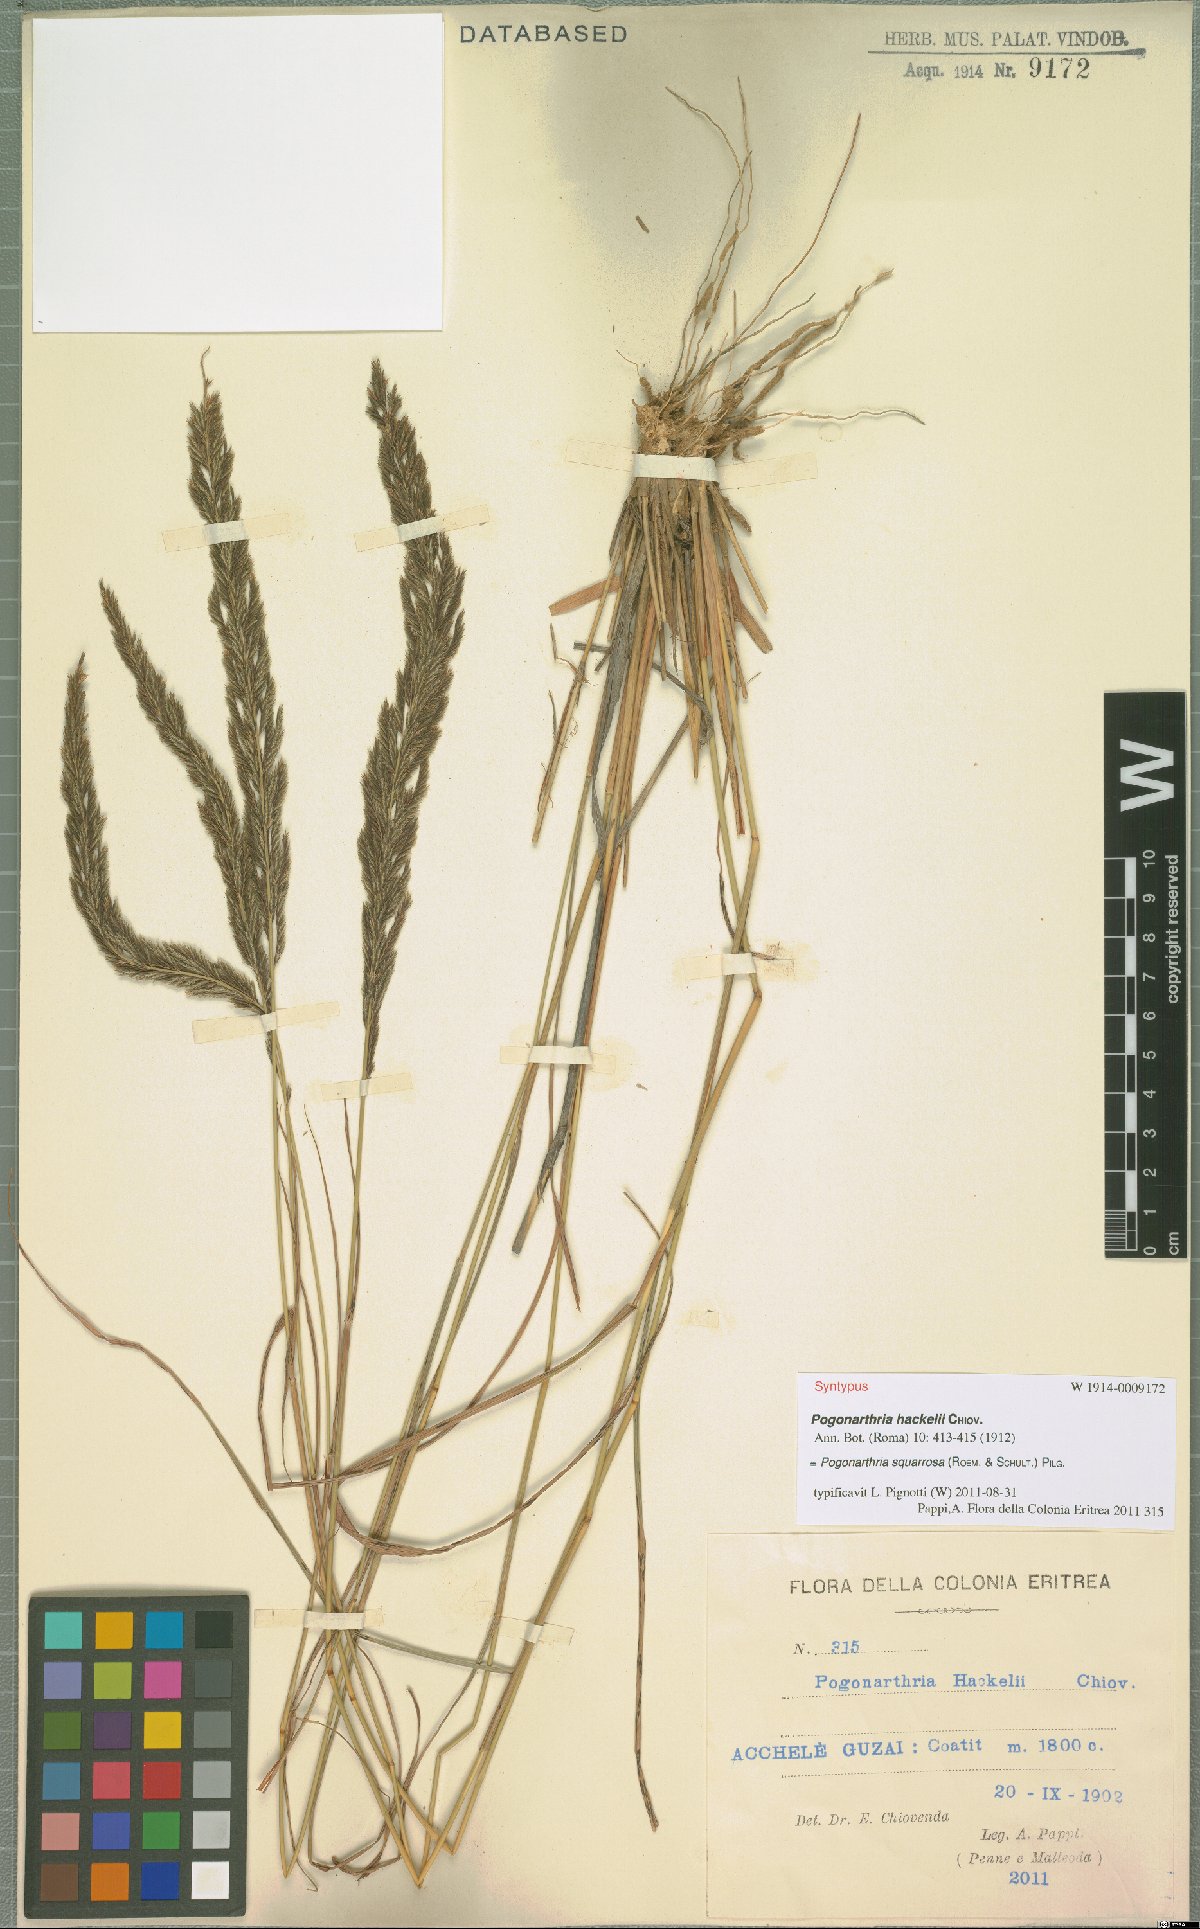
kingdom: Plantae
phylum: Tracheophyta
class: Liliopsida
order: Poales
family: Poaceae
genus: Pogonarthria
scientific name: Pogonarthria squarrosa
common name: Grass
